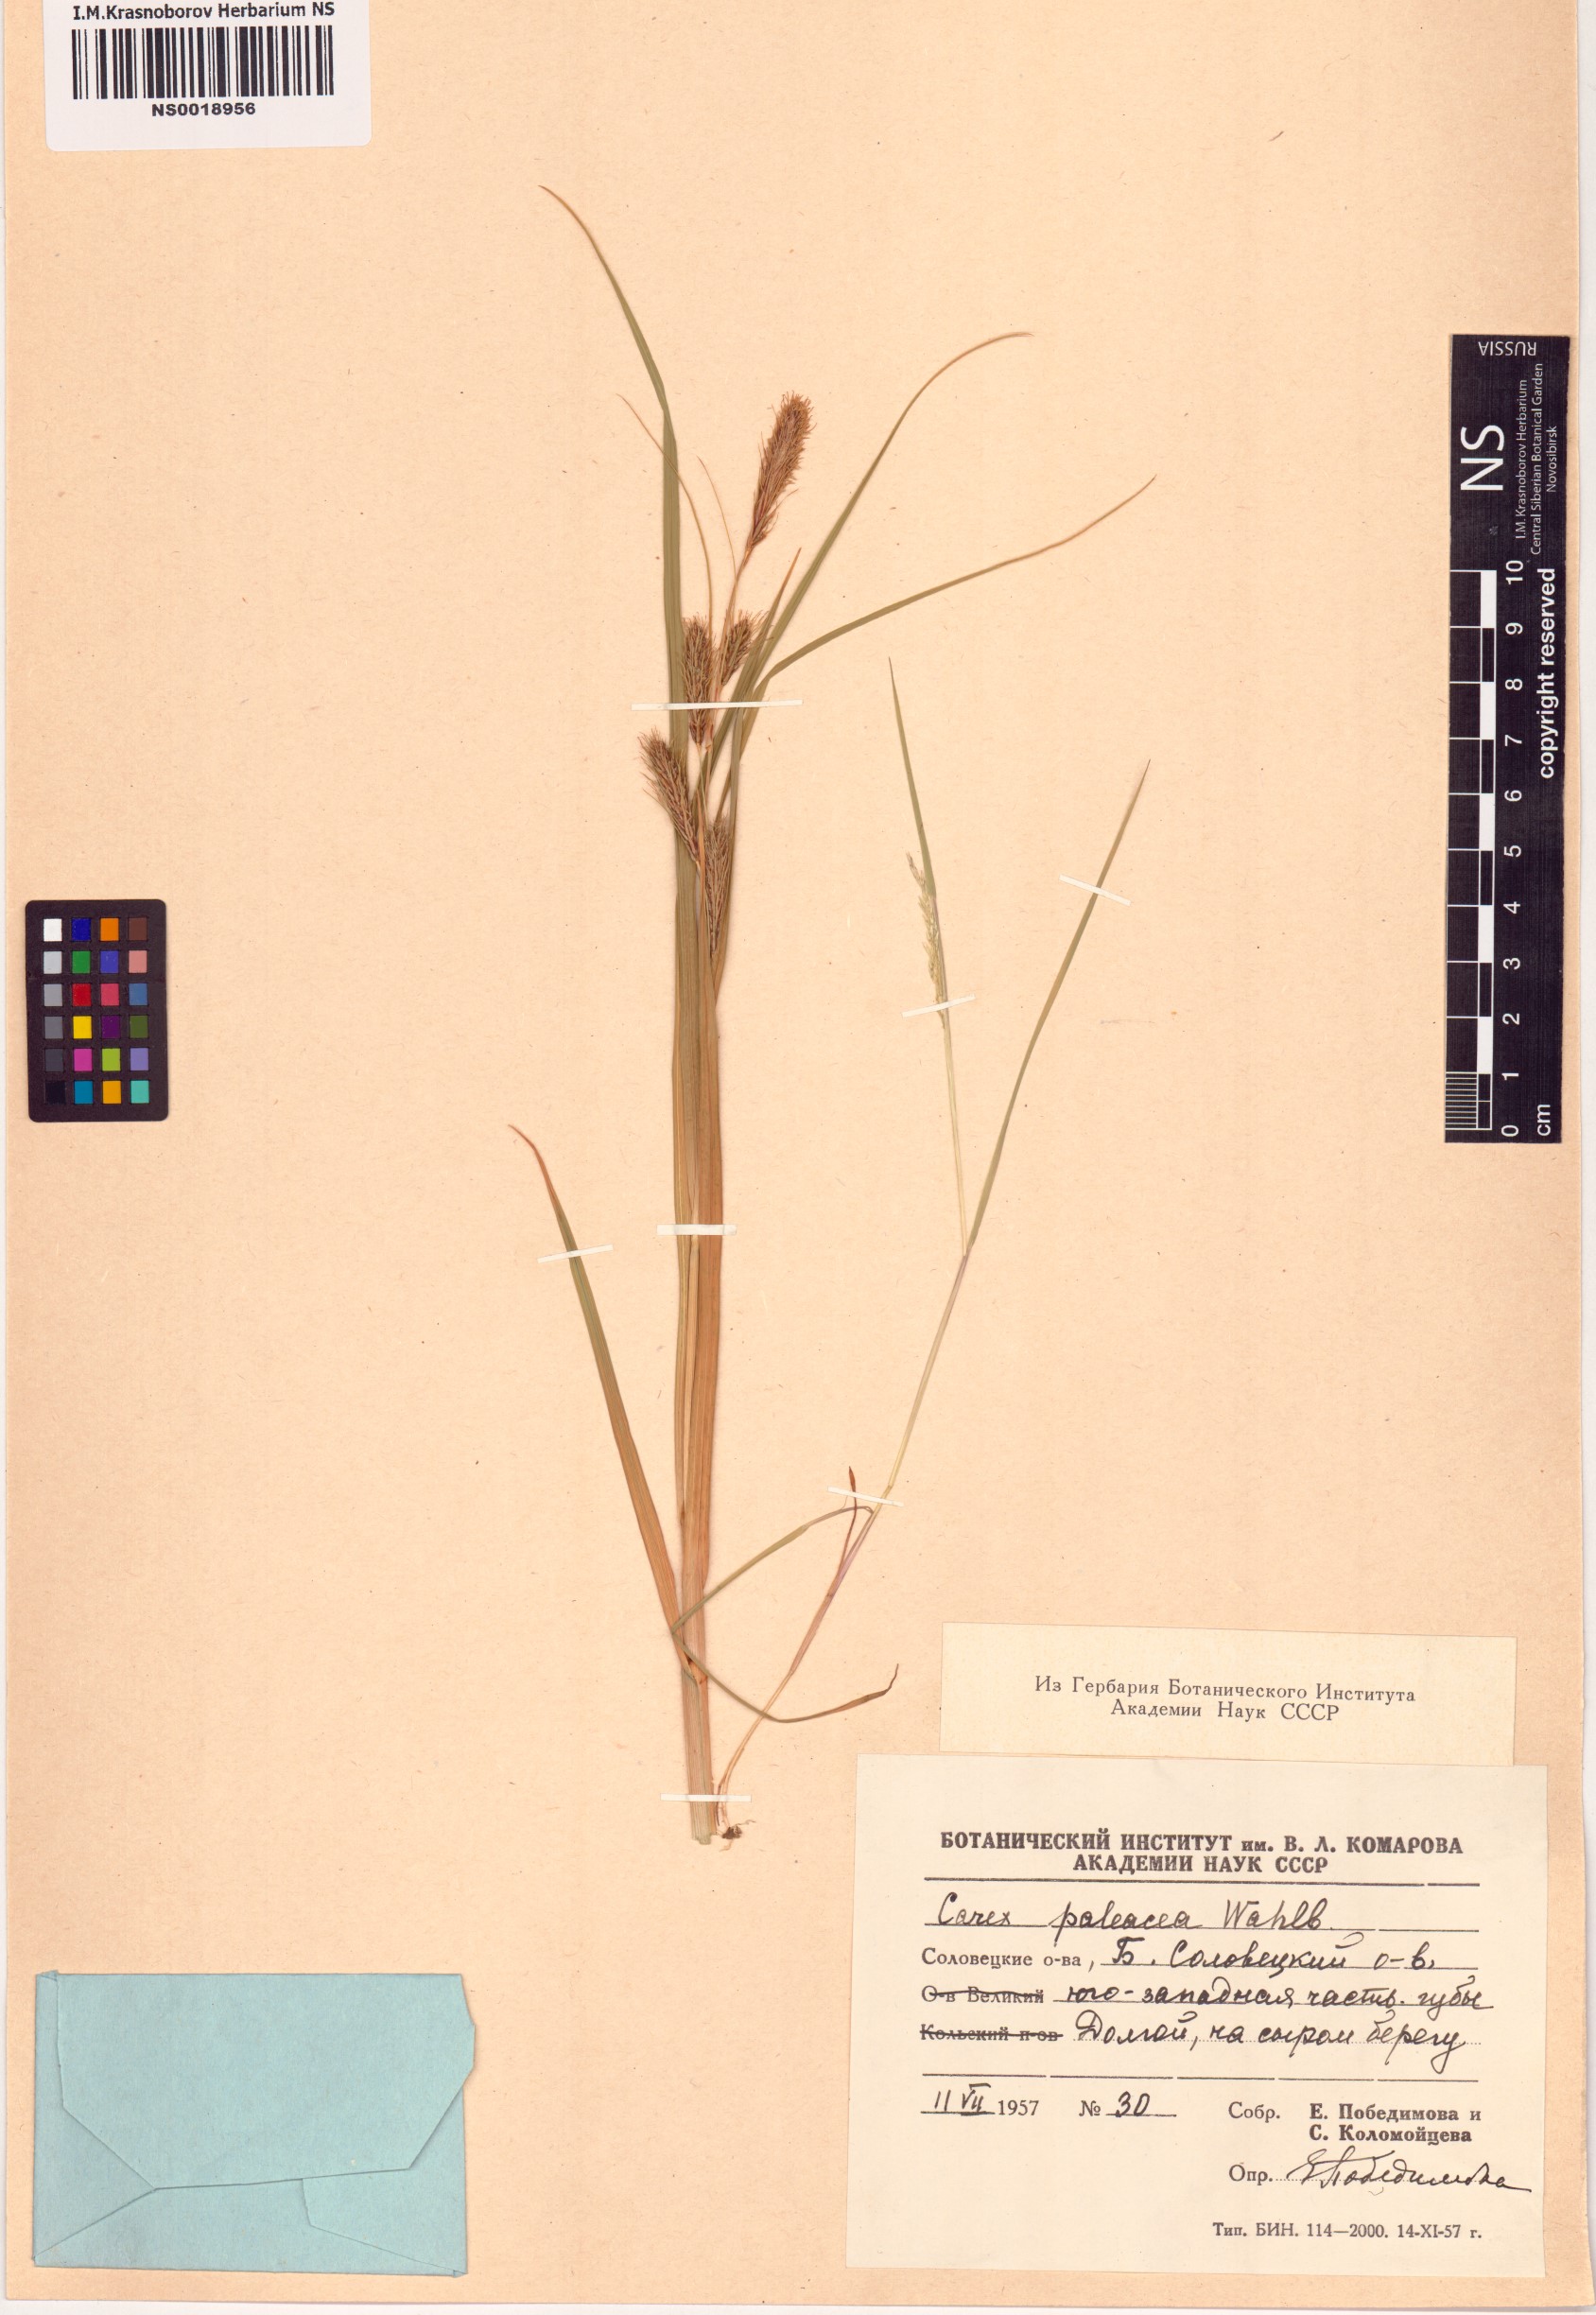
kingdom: Plantae
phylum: Tracheophyta
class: Liliopsida
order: Poales
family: Cyperaceae
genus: Carex
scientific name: Carex paleacea
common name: Chaffy sedge
